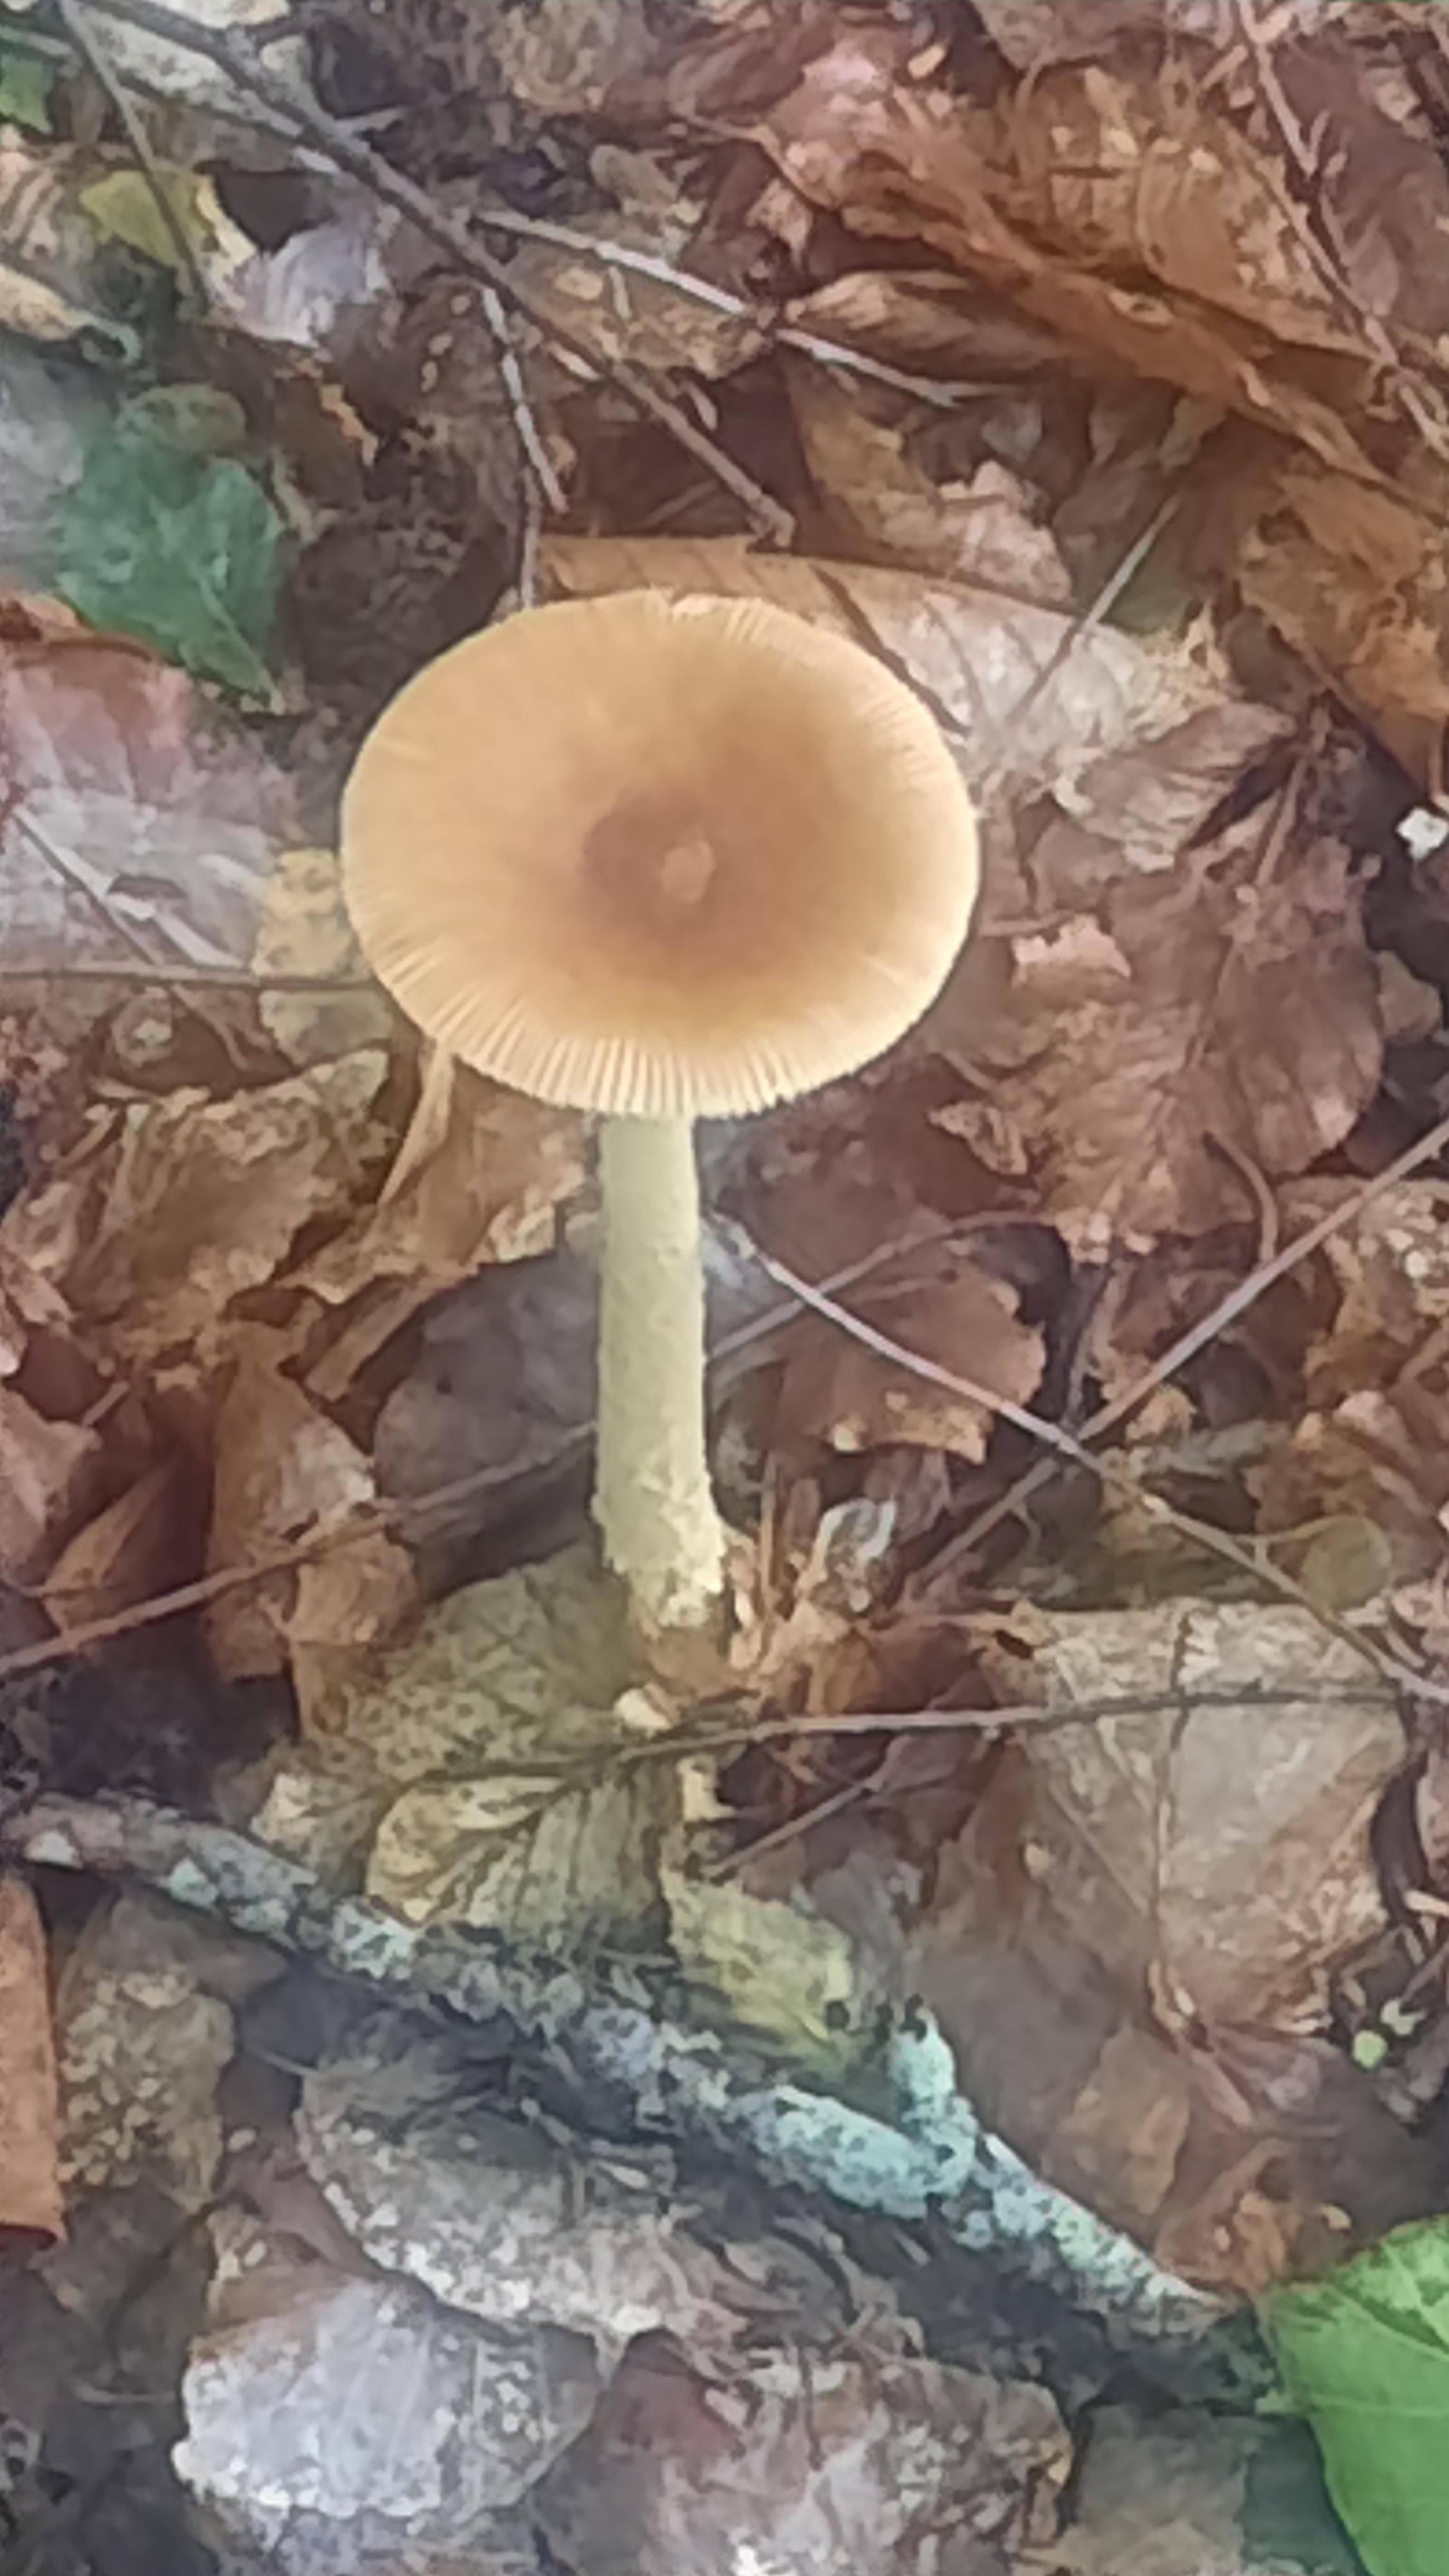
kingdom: Fungi
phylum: Basidiomycota
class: Agaricomycetes
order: Agaricales
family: Amanitaceae
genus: Amanita
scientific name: Amanita fulva
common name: brun kam-fluesvamp
